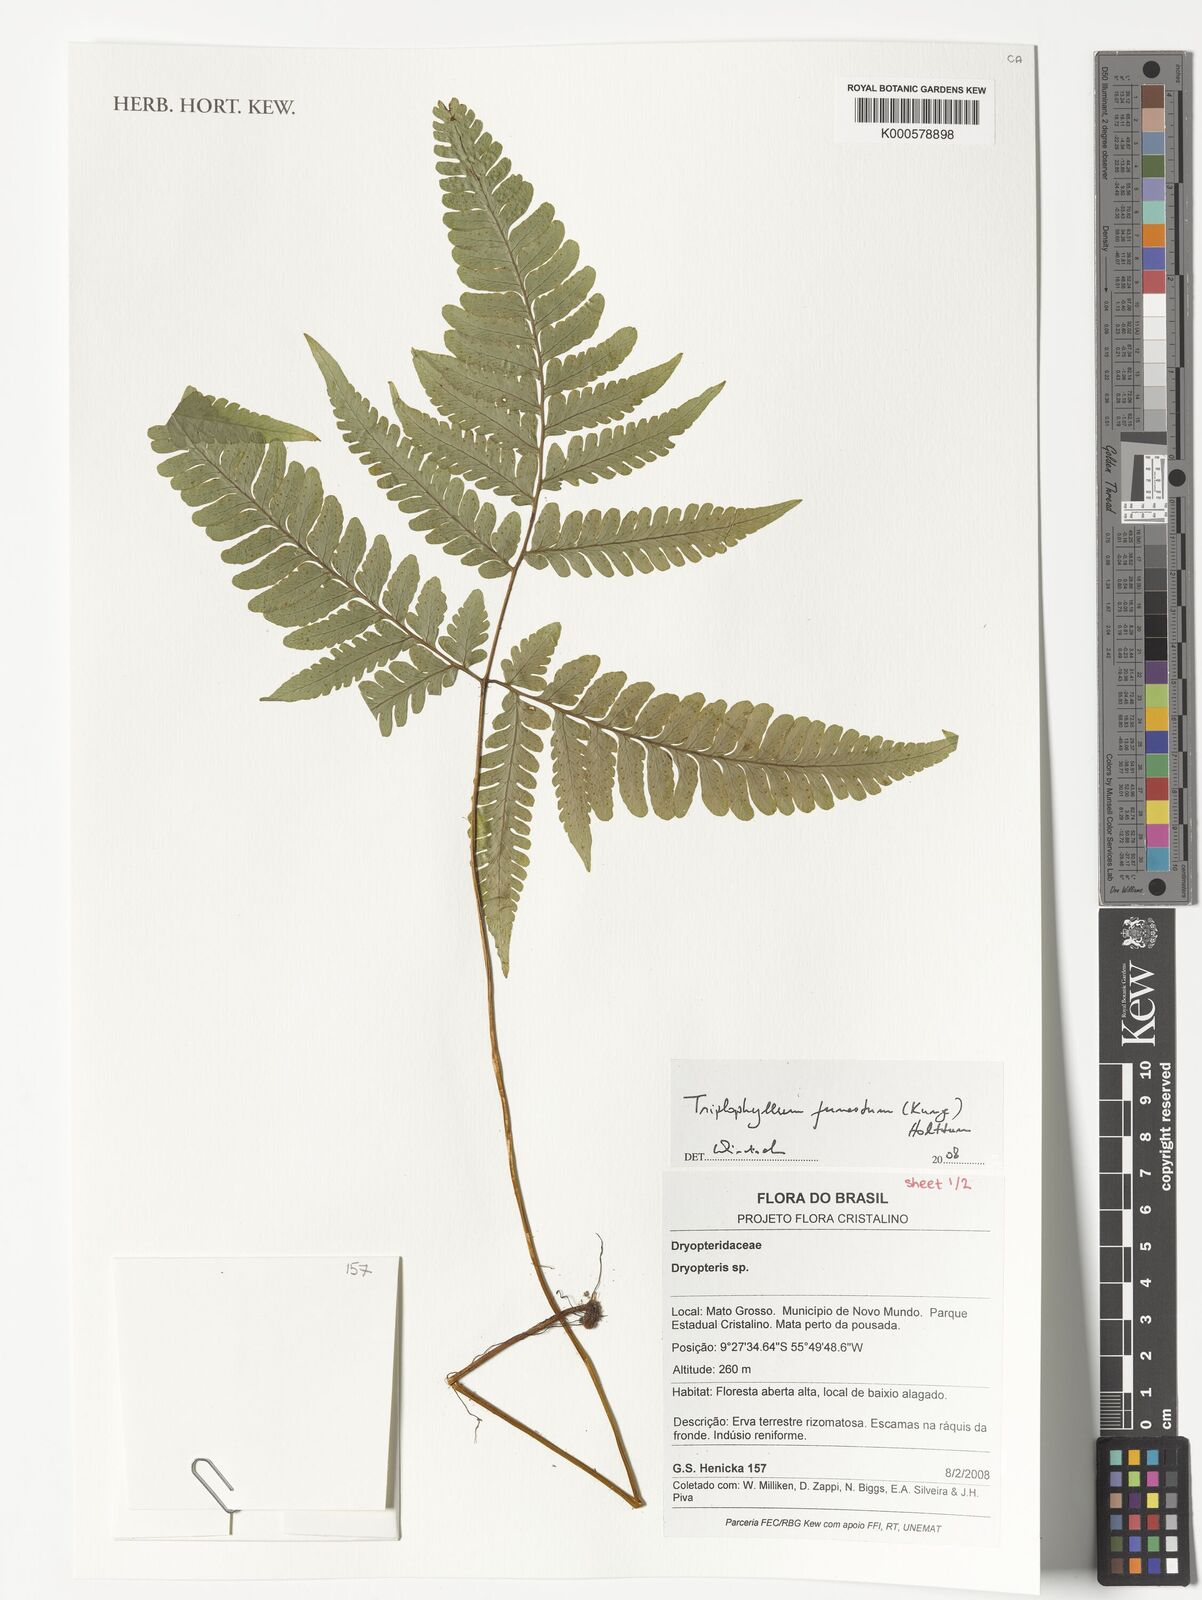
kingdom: Plantae
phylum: Tracheophyta
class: Polypodiopsida
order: Polypodiales
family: Tectariaceae
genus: Triplophyllum
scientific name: Triplophyllum funestum
